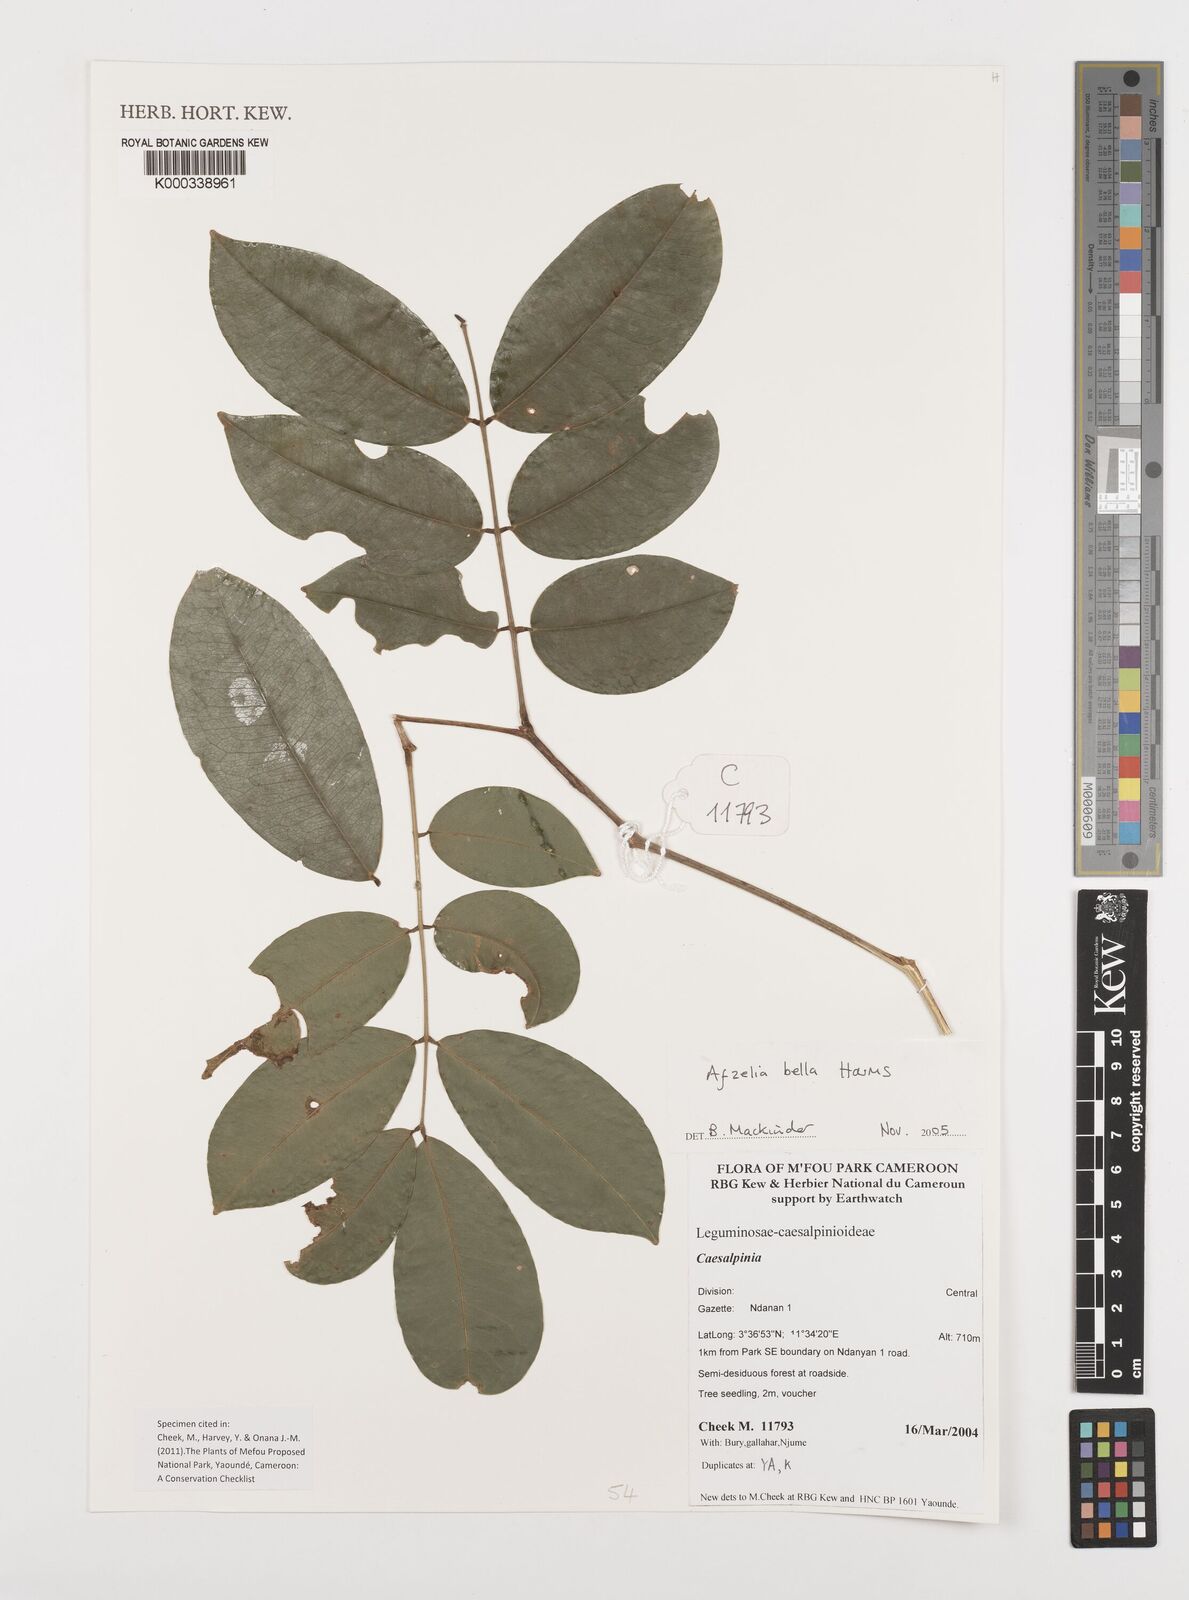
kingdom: Plantae
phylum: Tracheophyta
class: Magnoliopsida
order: Fabales
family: Fabaceae
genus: Afzelia
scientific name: Afzelia bella
